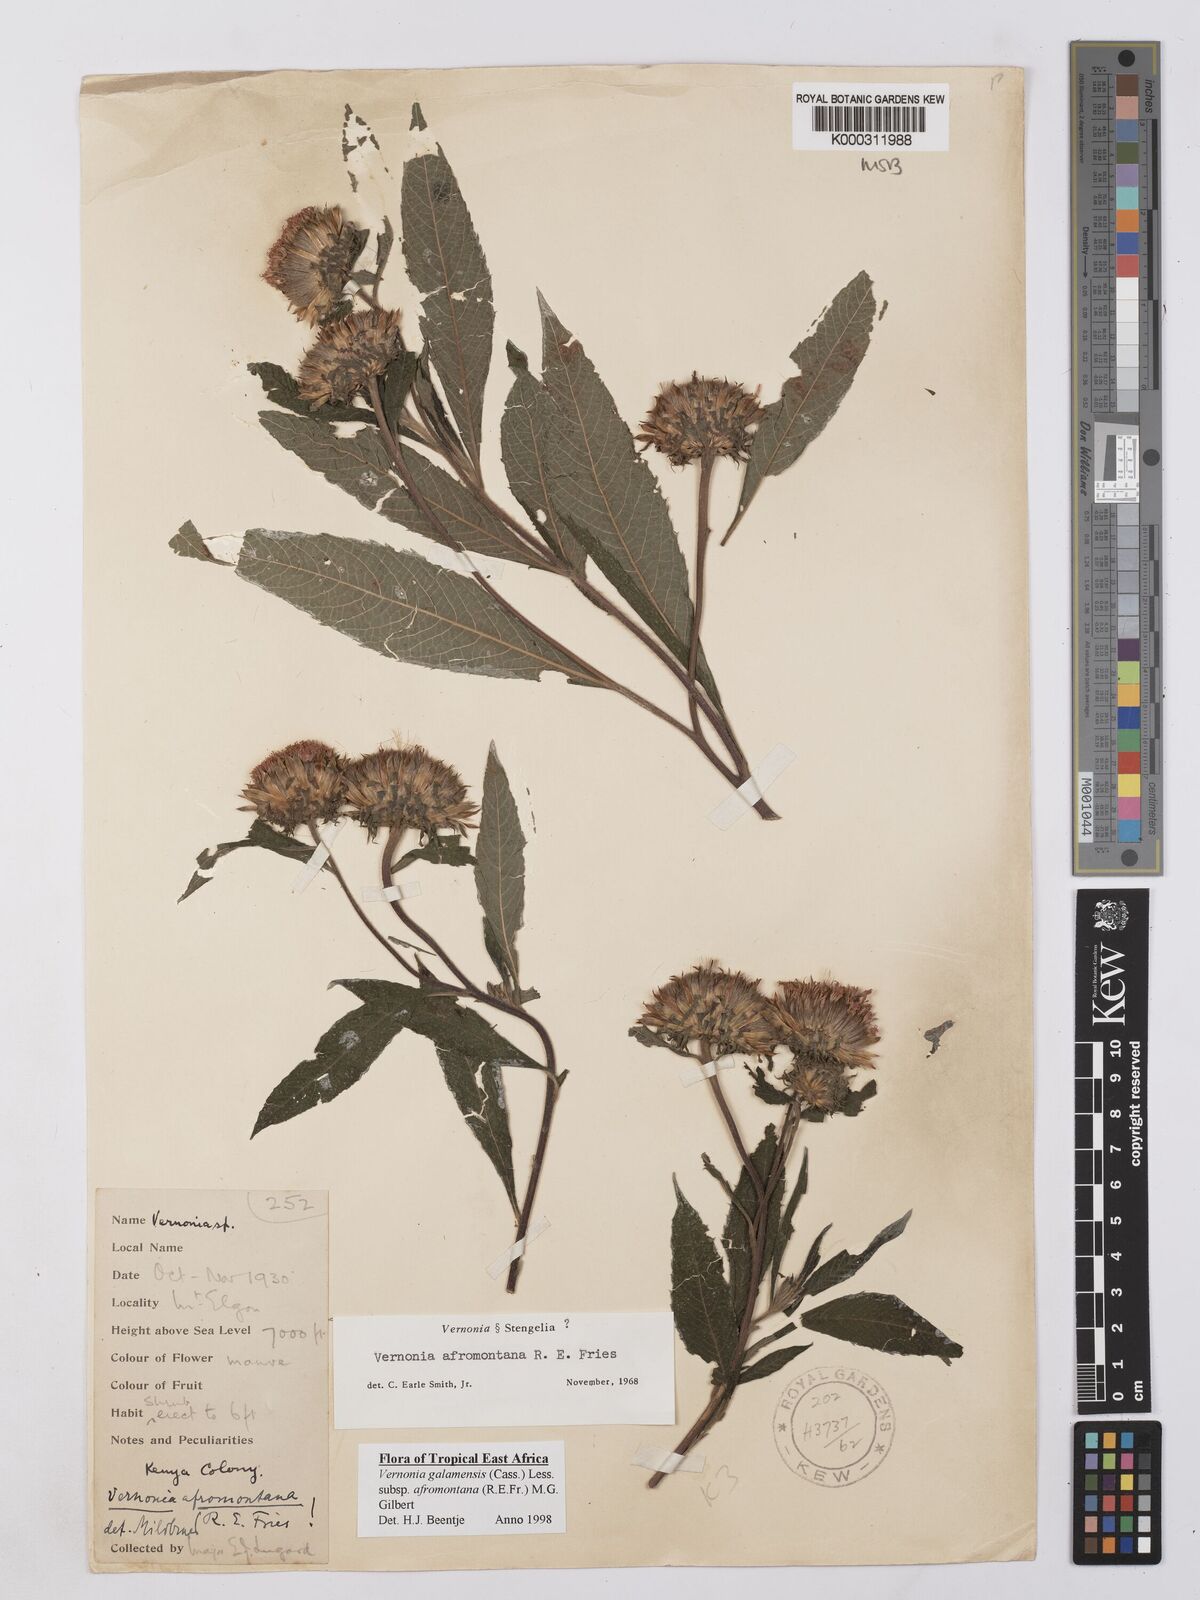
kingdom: Plantae
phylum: Tracheophyta
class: Magnoliopsida
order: Asterales
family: Asteraceae
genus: Vernonia
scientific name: Vernonia galamensis
